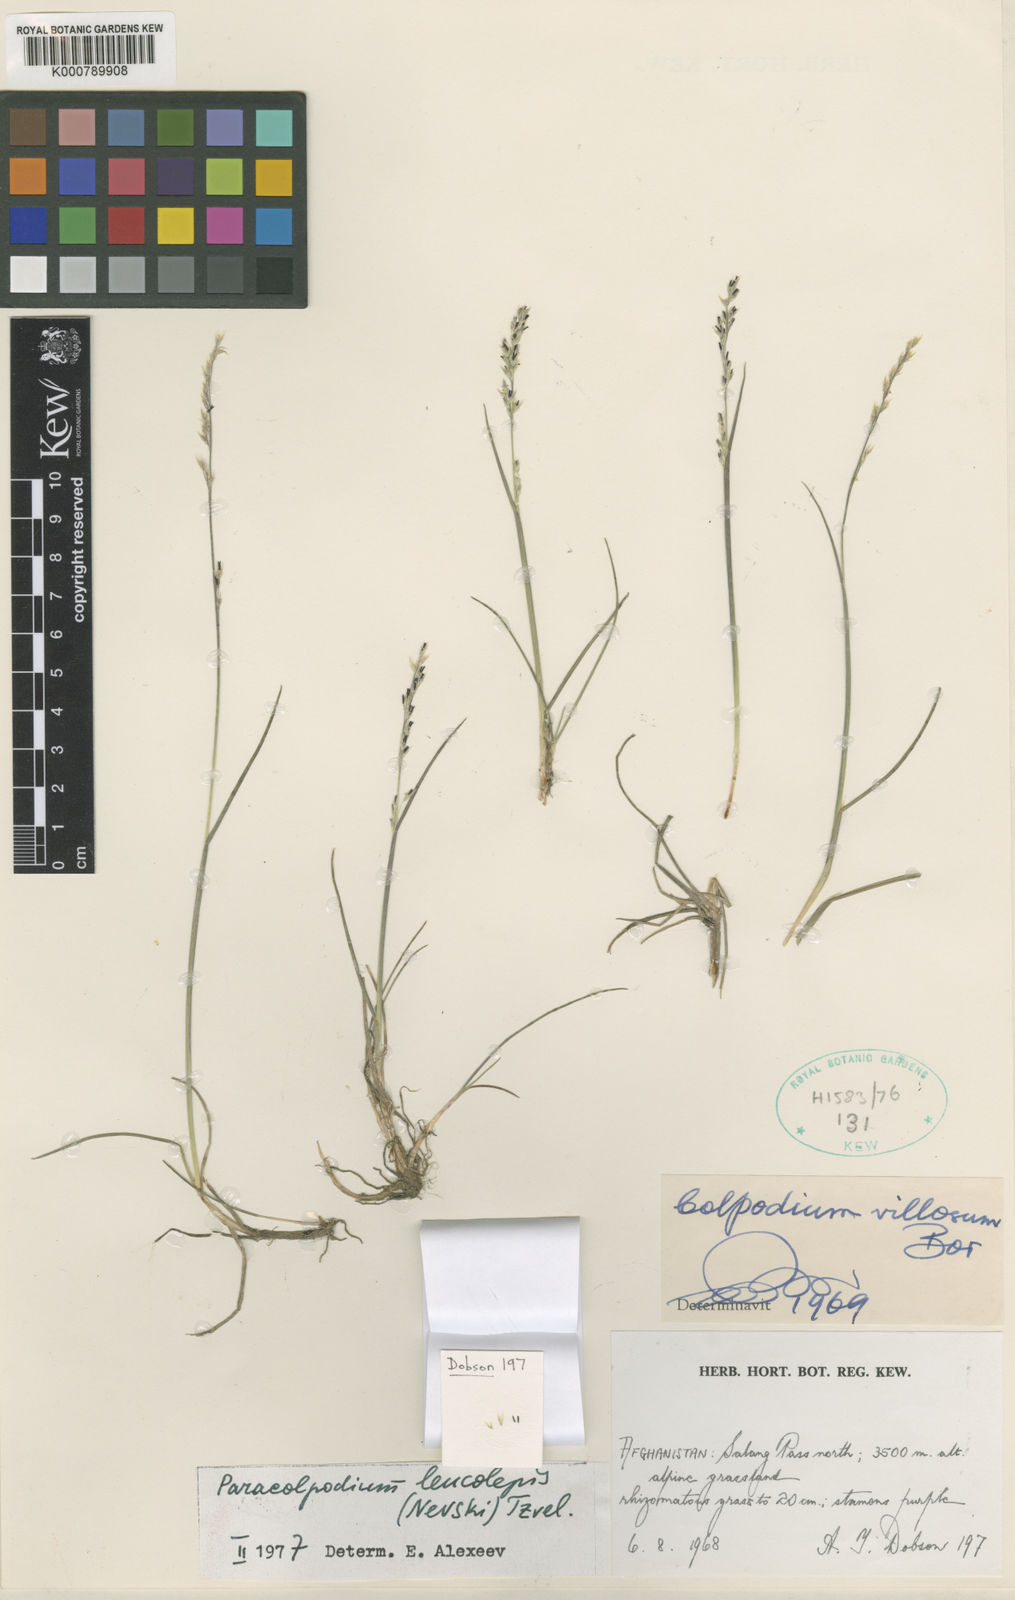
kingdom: Plantae
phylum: Tracheophyta
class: Liliopsida
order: Poales
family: Poaceae
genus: Paracolpodium
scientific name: Paracolpodium altaicum
